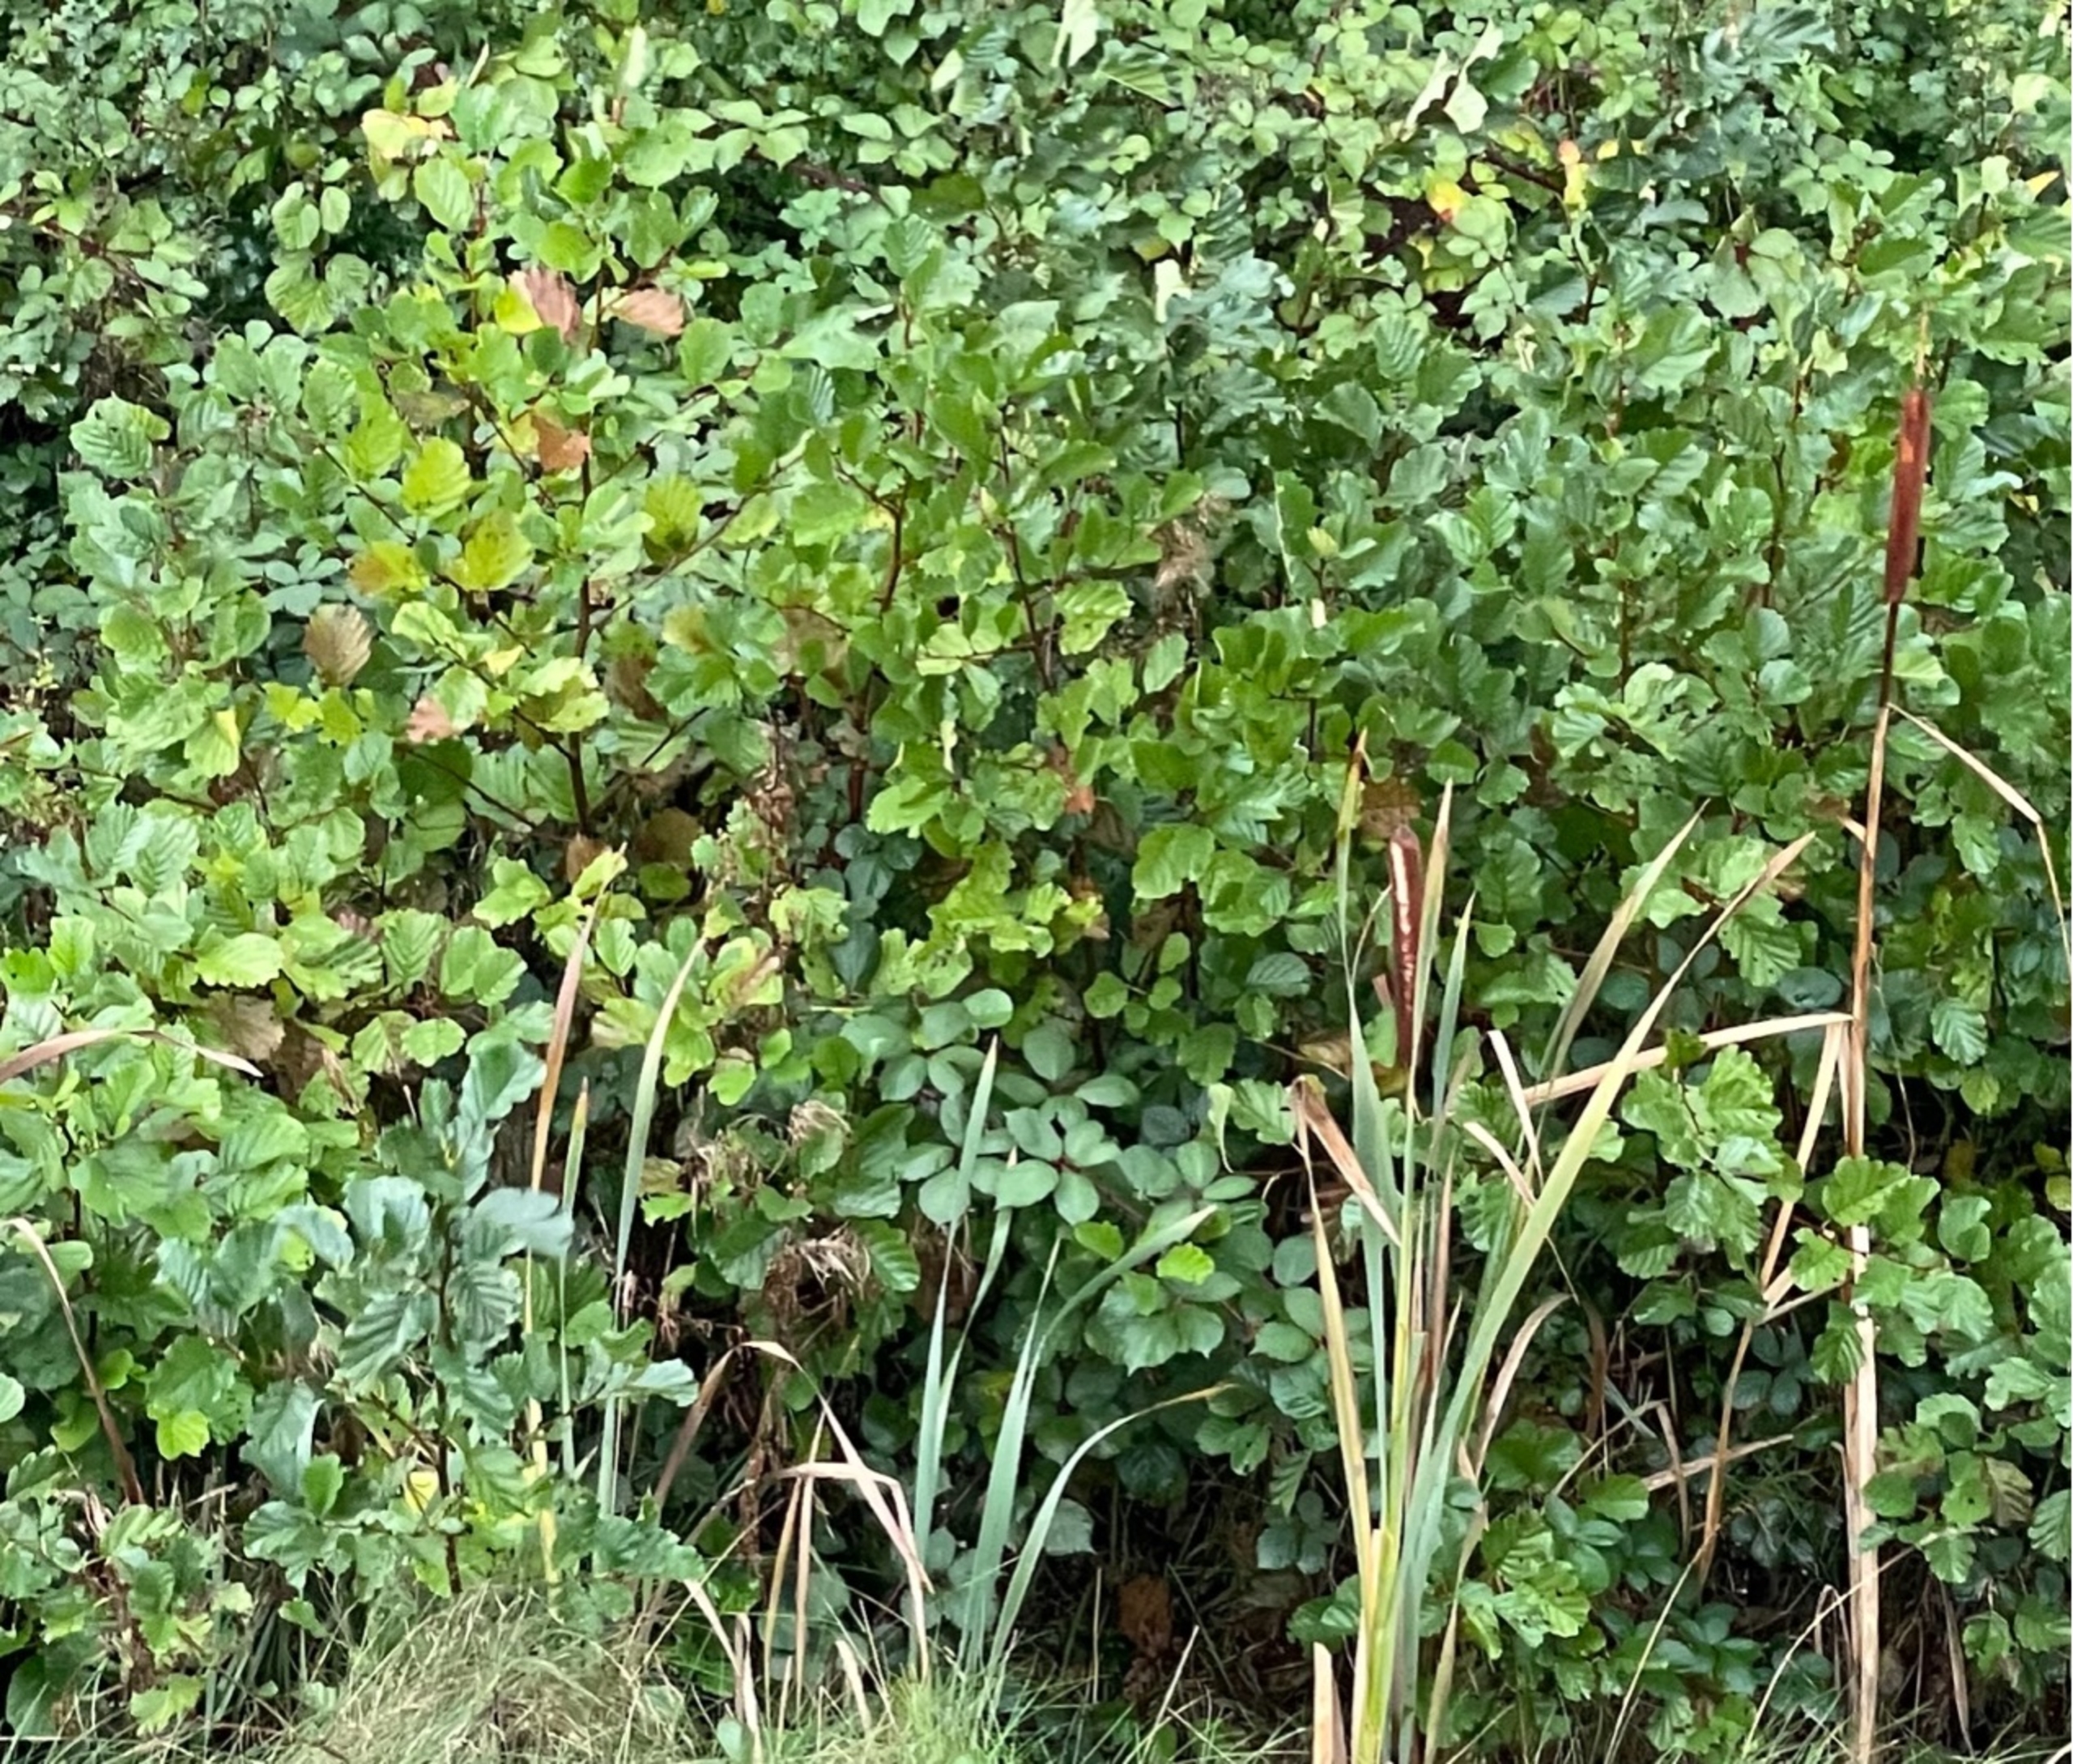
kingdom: Plantae
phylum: Tracheophyta
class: Magnoliopsida
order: Fagales
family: Betulaceae
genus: Alnus
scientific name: Alnus glutinosa
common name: Rød-el
